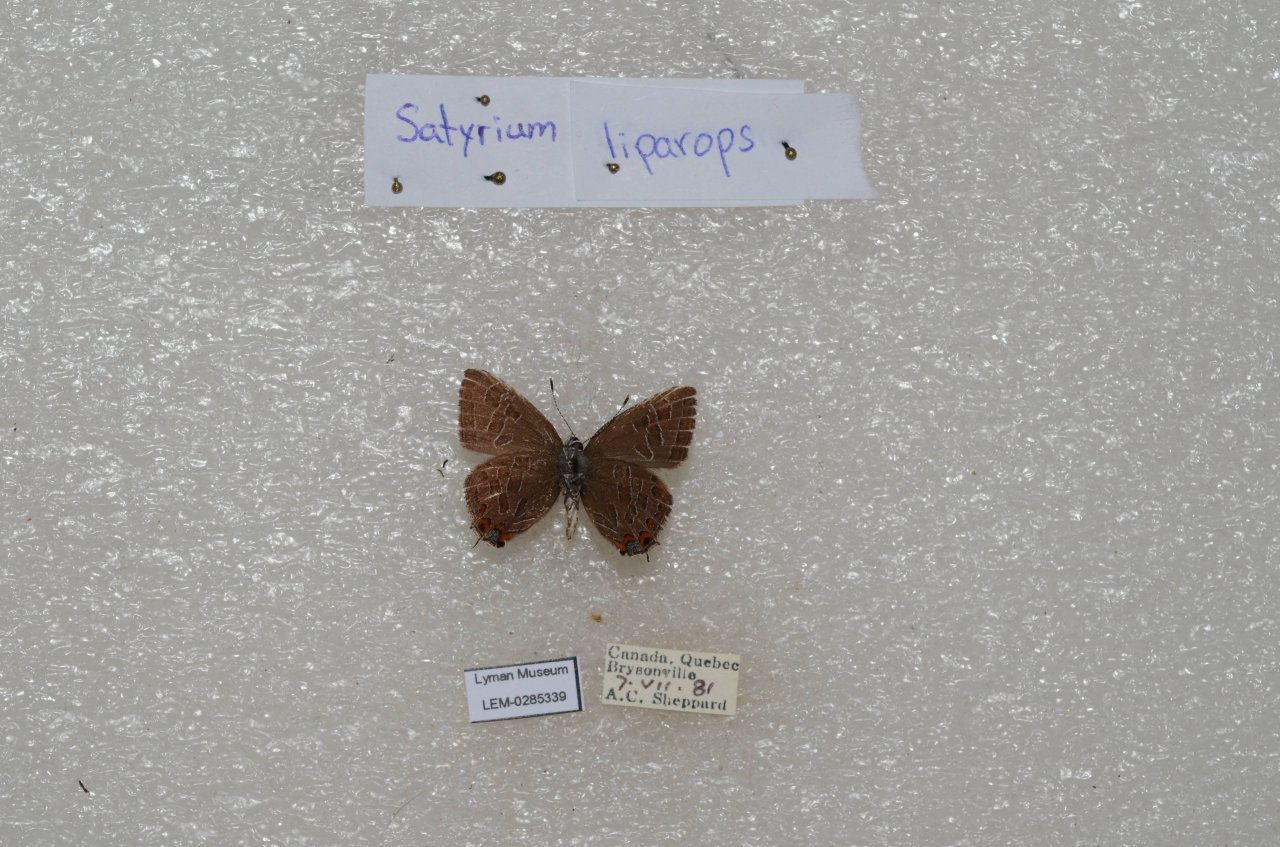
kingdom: Animalia
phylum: Arthropoda
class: Insecta
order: Lepidoptera
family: Lycaenidae
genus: Satyrium
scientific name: Satyrium liparops
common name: Striped Hairstreak
